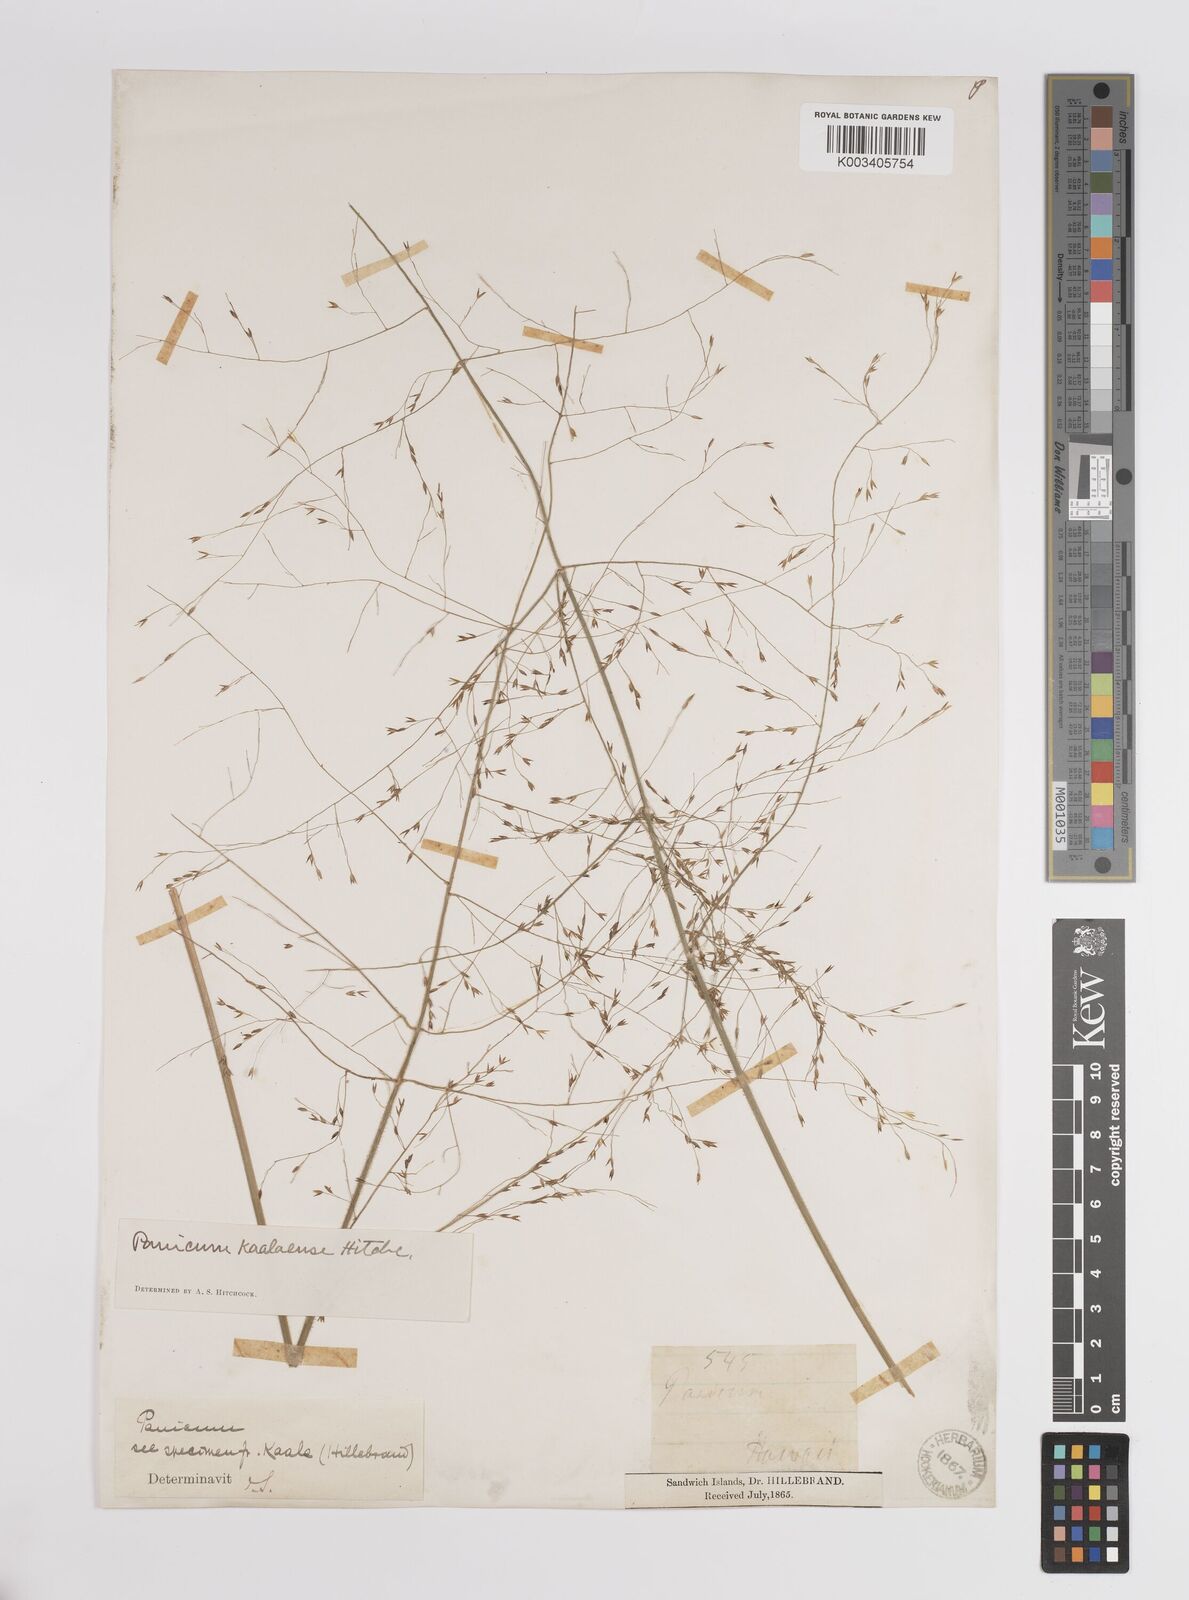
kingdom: Plantae
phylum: Tracheophyta
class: Liliopsida
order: Poales
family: Poaceae
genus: Panicum
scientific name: Panicum nephelophilum
